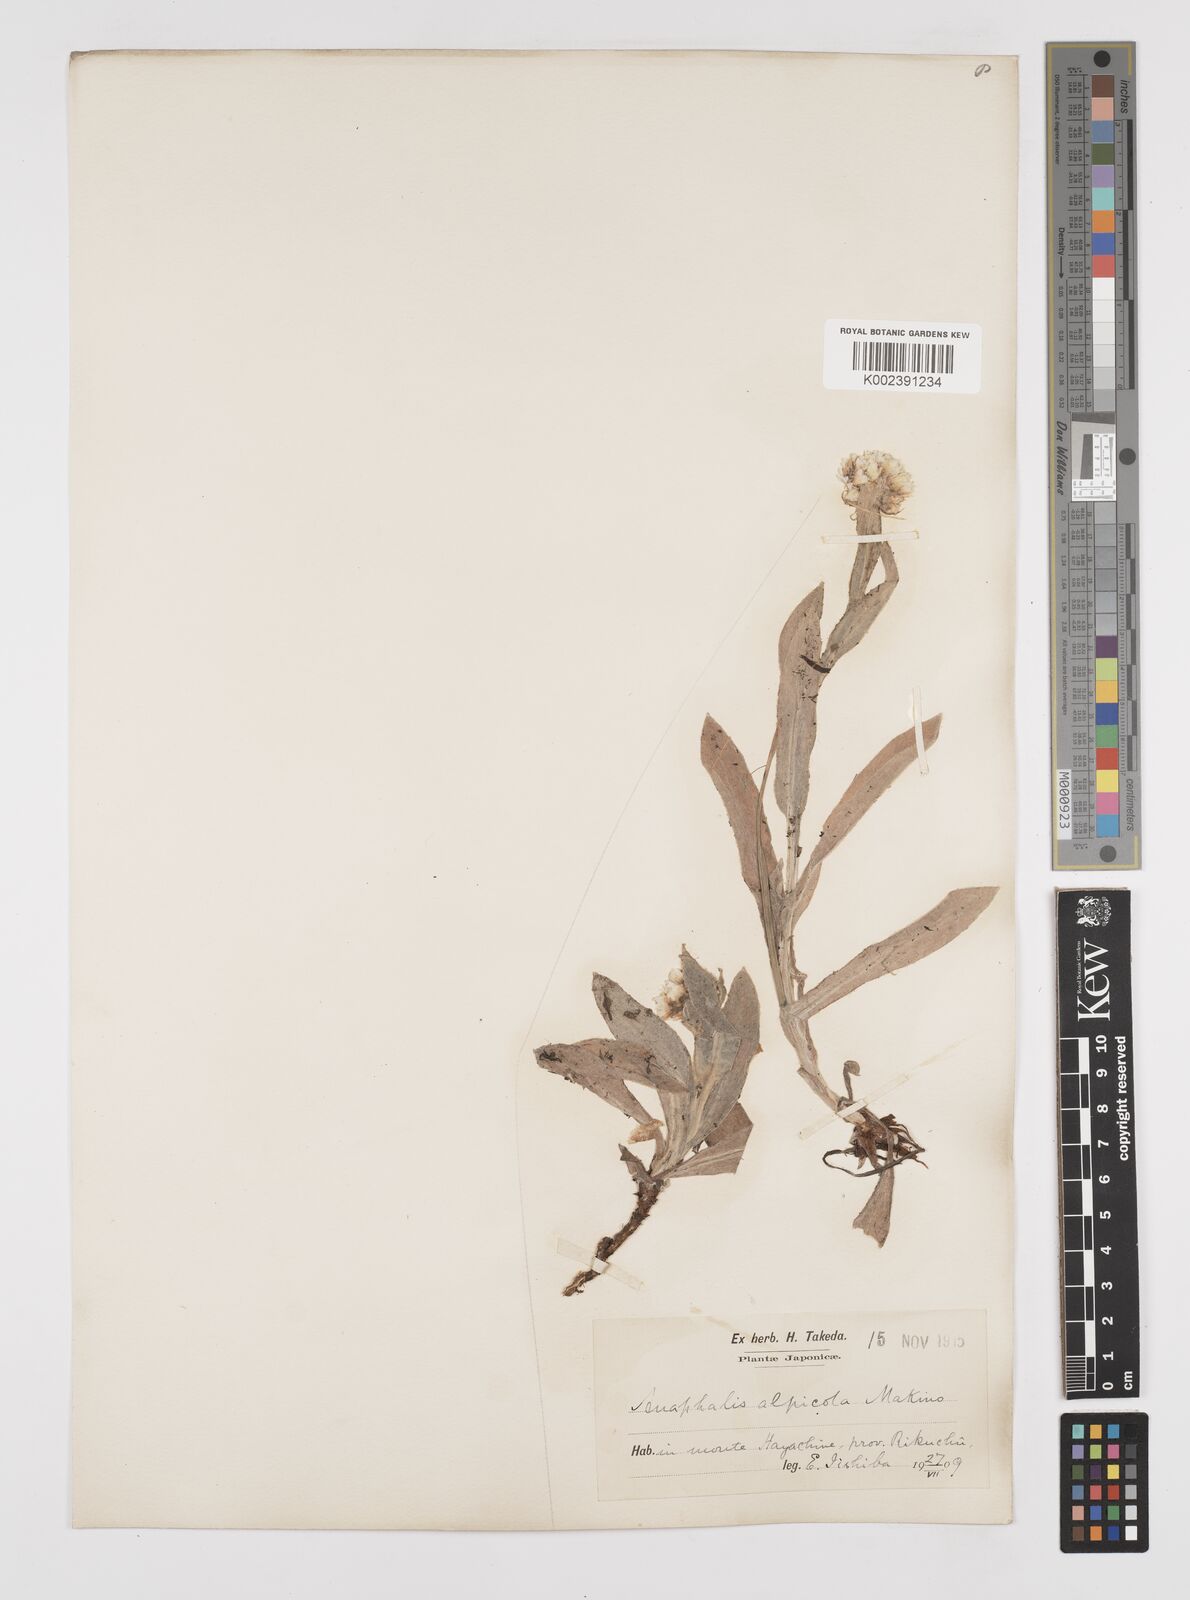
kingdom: Plantae
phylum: Tracheophyta
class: Magnoliopsida
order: Asterales
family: Asteraceae
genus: Anaphalis
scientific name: Anaphalis alpicola
